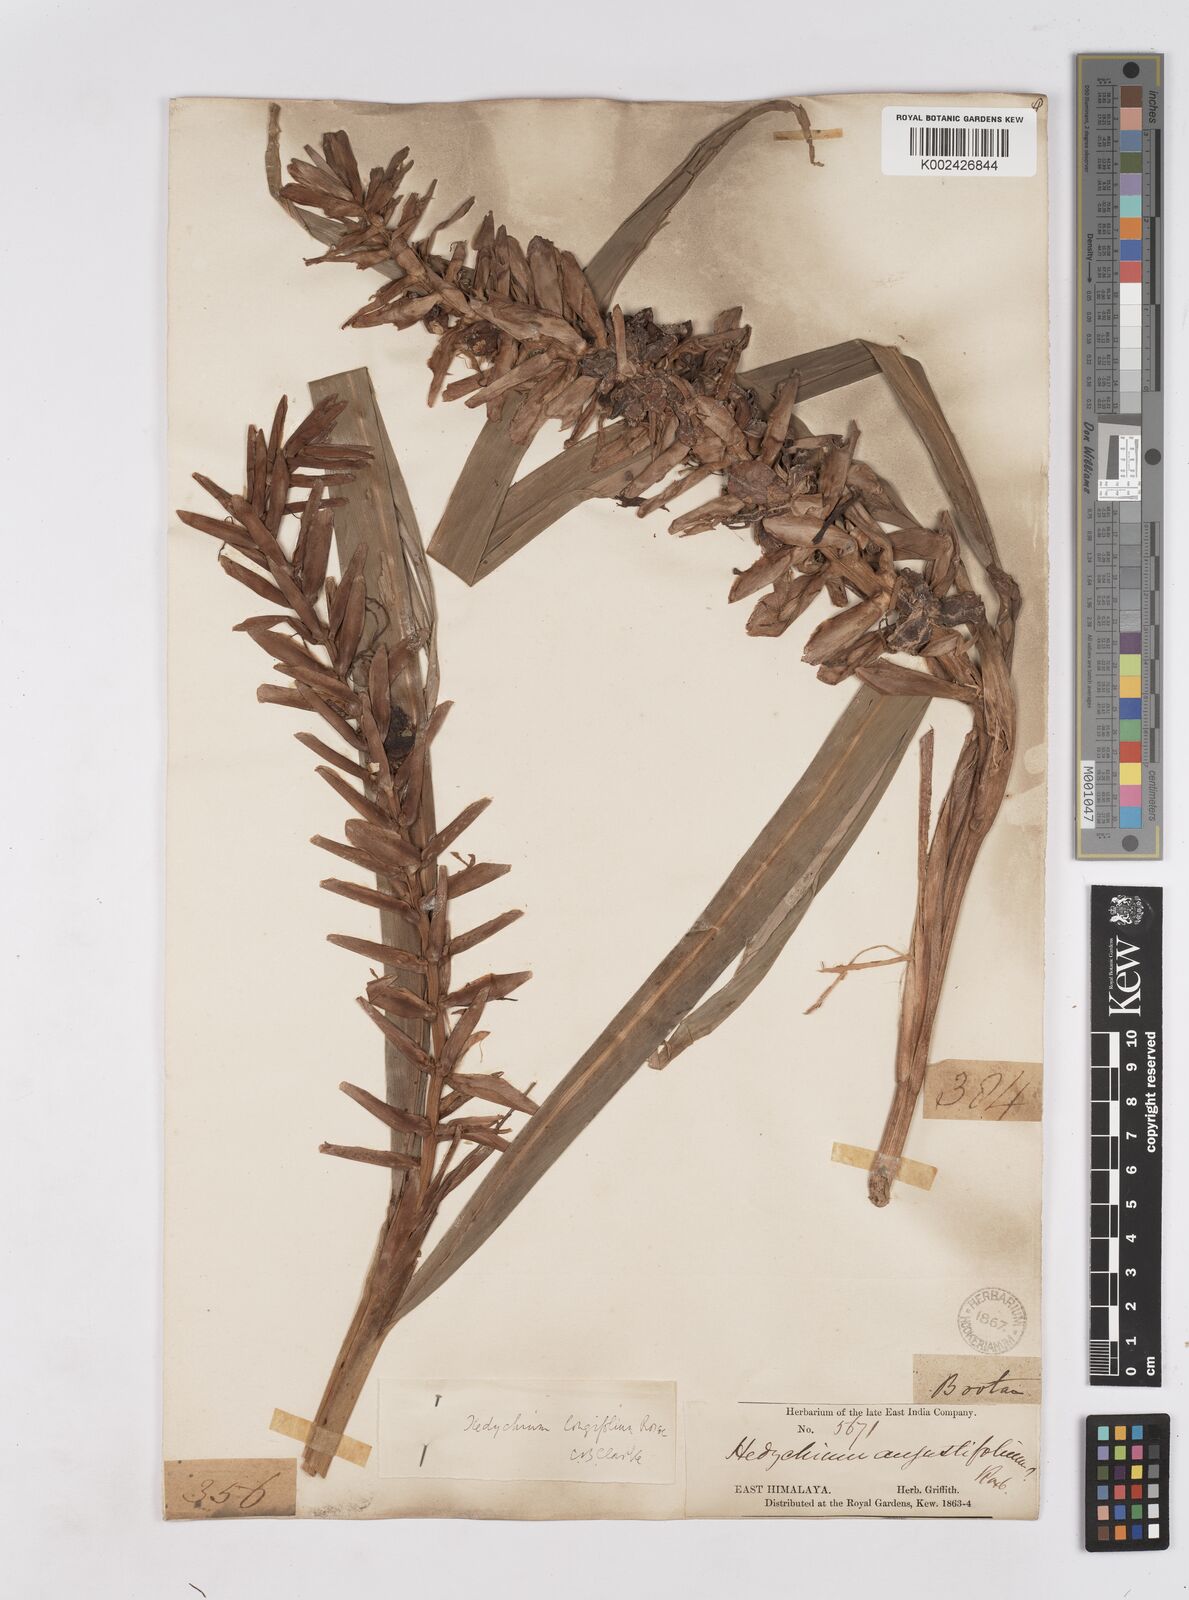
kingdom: Plantae
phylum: Tracheophyta
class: Liliopsida
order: Zingiberales
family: Zingiberaceae
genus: Hedychium
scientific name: Hedychium coccineum
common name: Red ginger-lily
